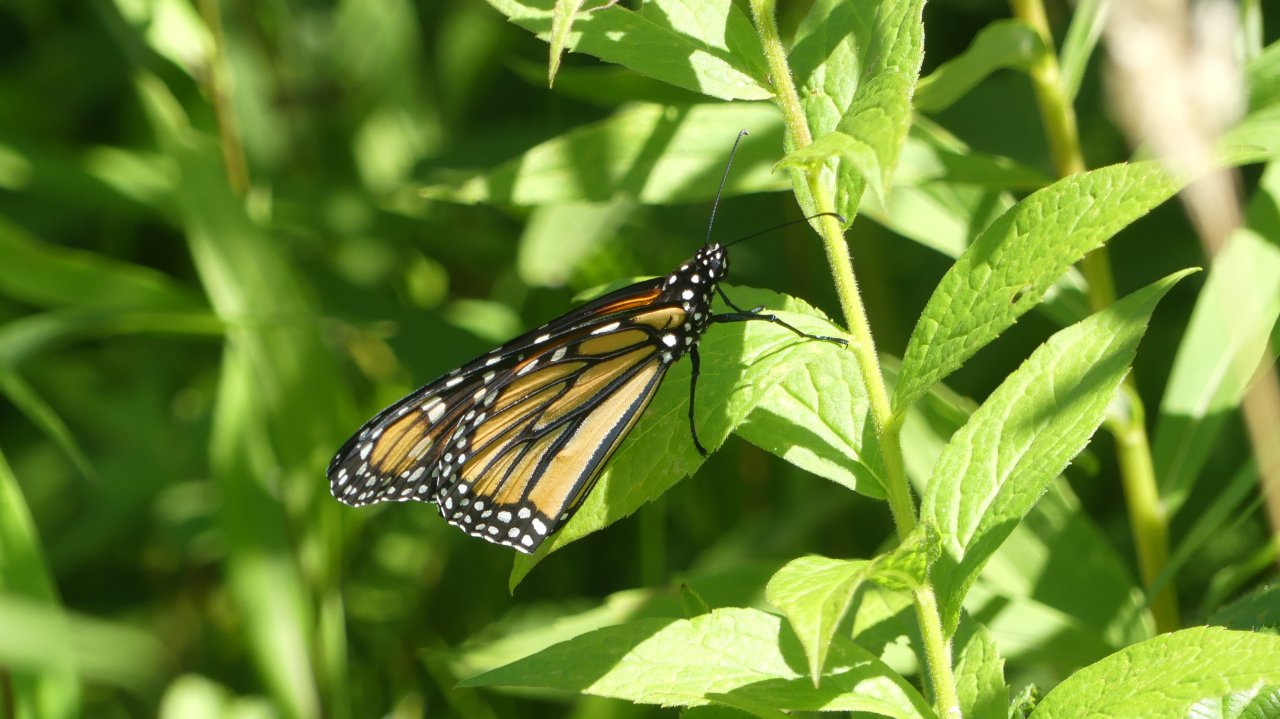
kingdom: Animalia
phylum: Arthropoda
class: Insecta
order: Lepidoptera
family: Nymphalidae
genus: Danaus
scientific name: Danaus plexippus
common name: Monarch
